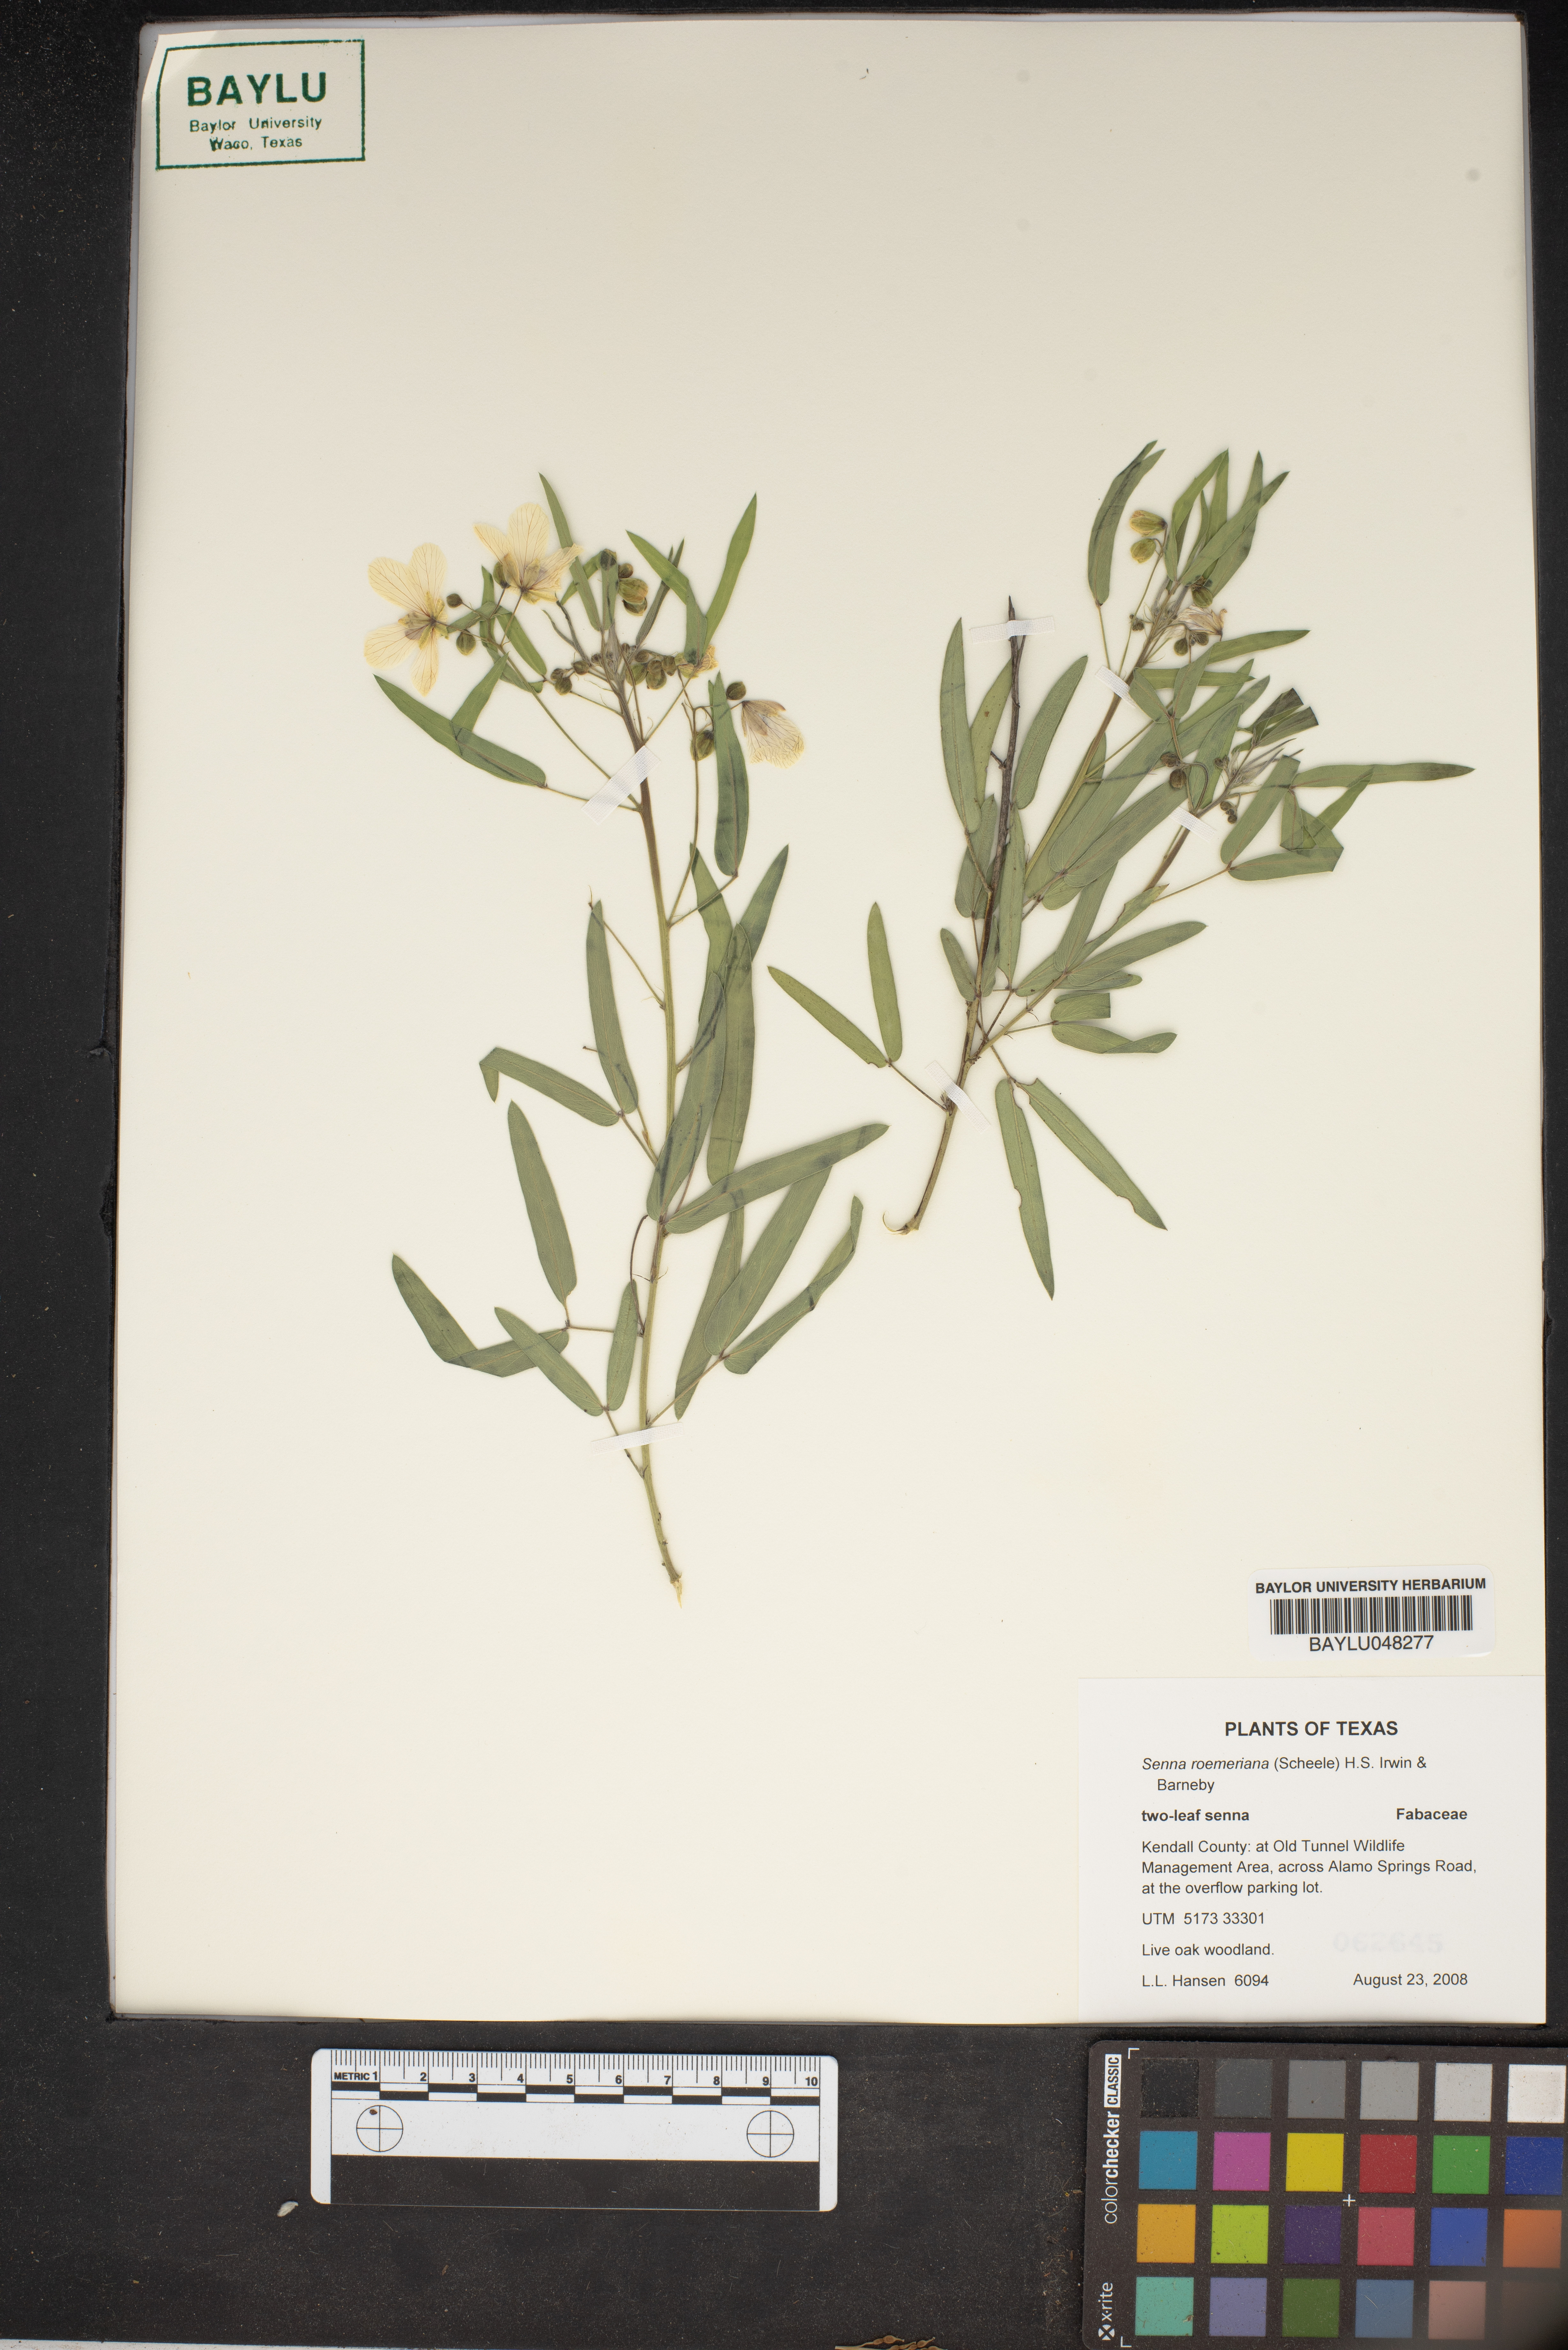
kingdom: Plantae
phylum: Tracheophyta
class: Magnoliopsida
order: Fabales
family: Fabaceae
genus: Senna
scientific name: Senna roemeriana
